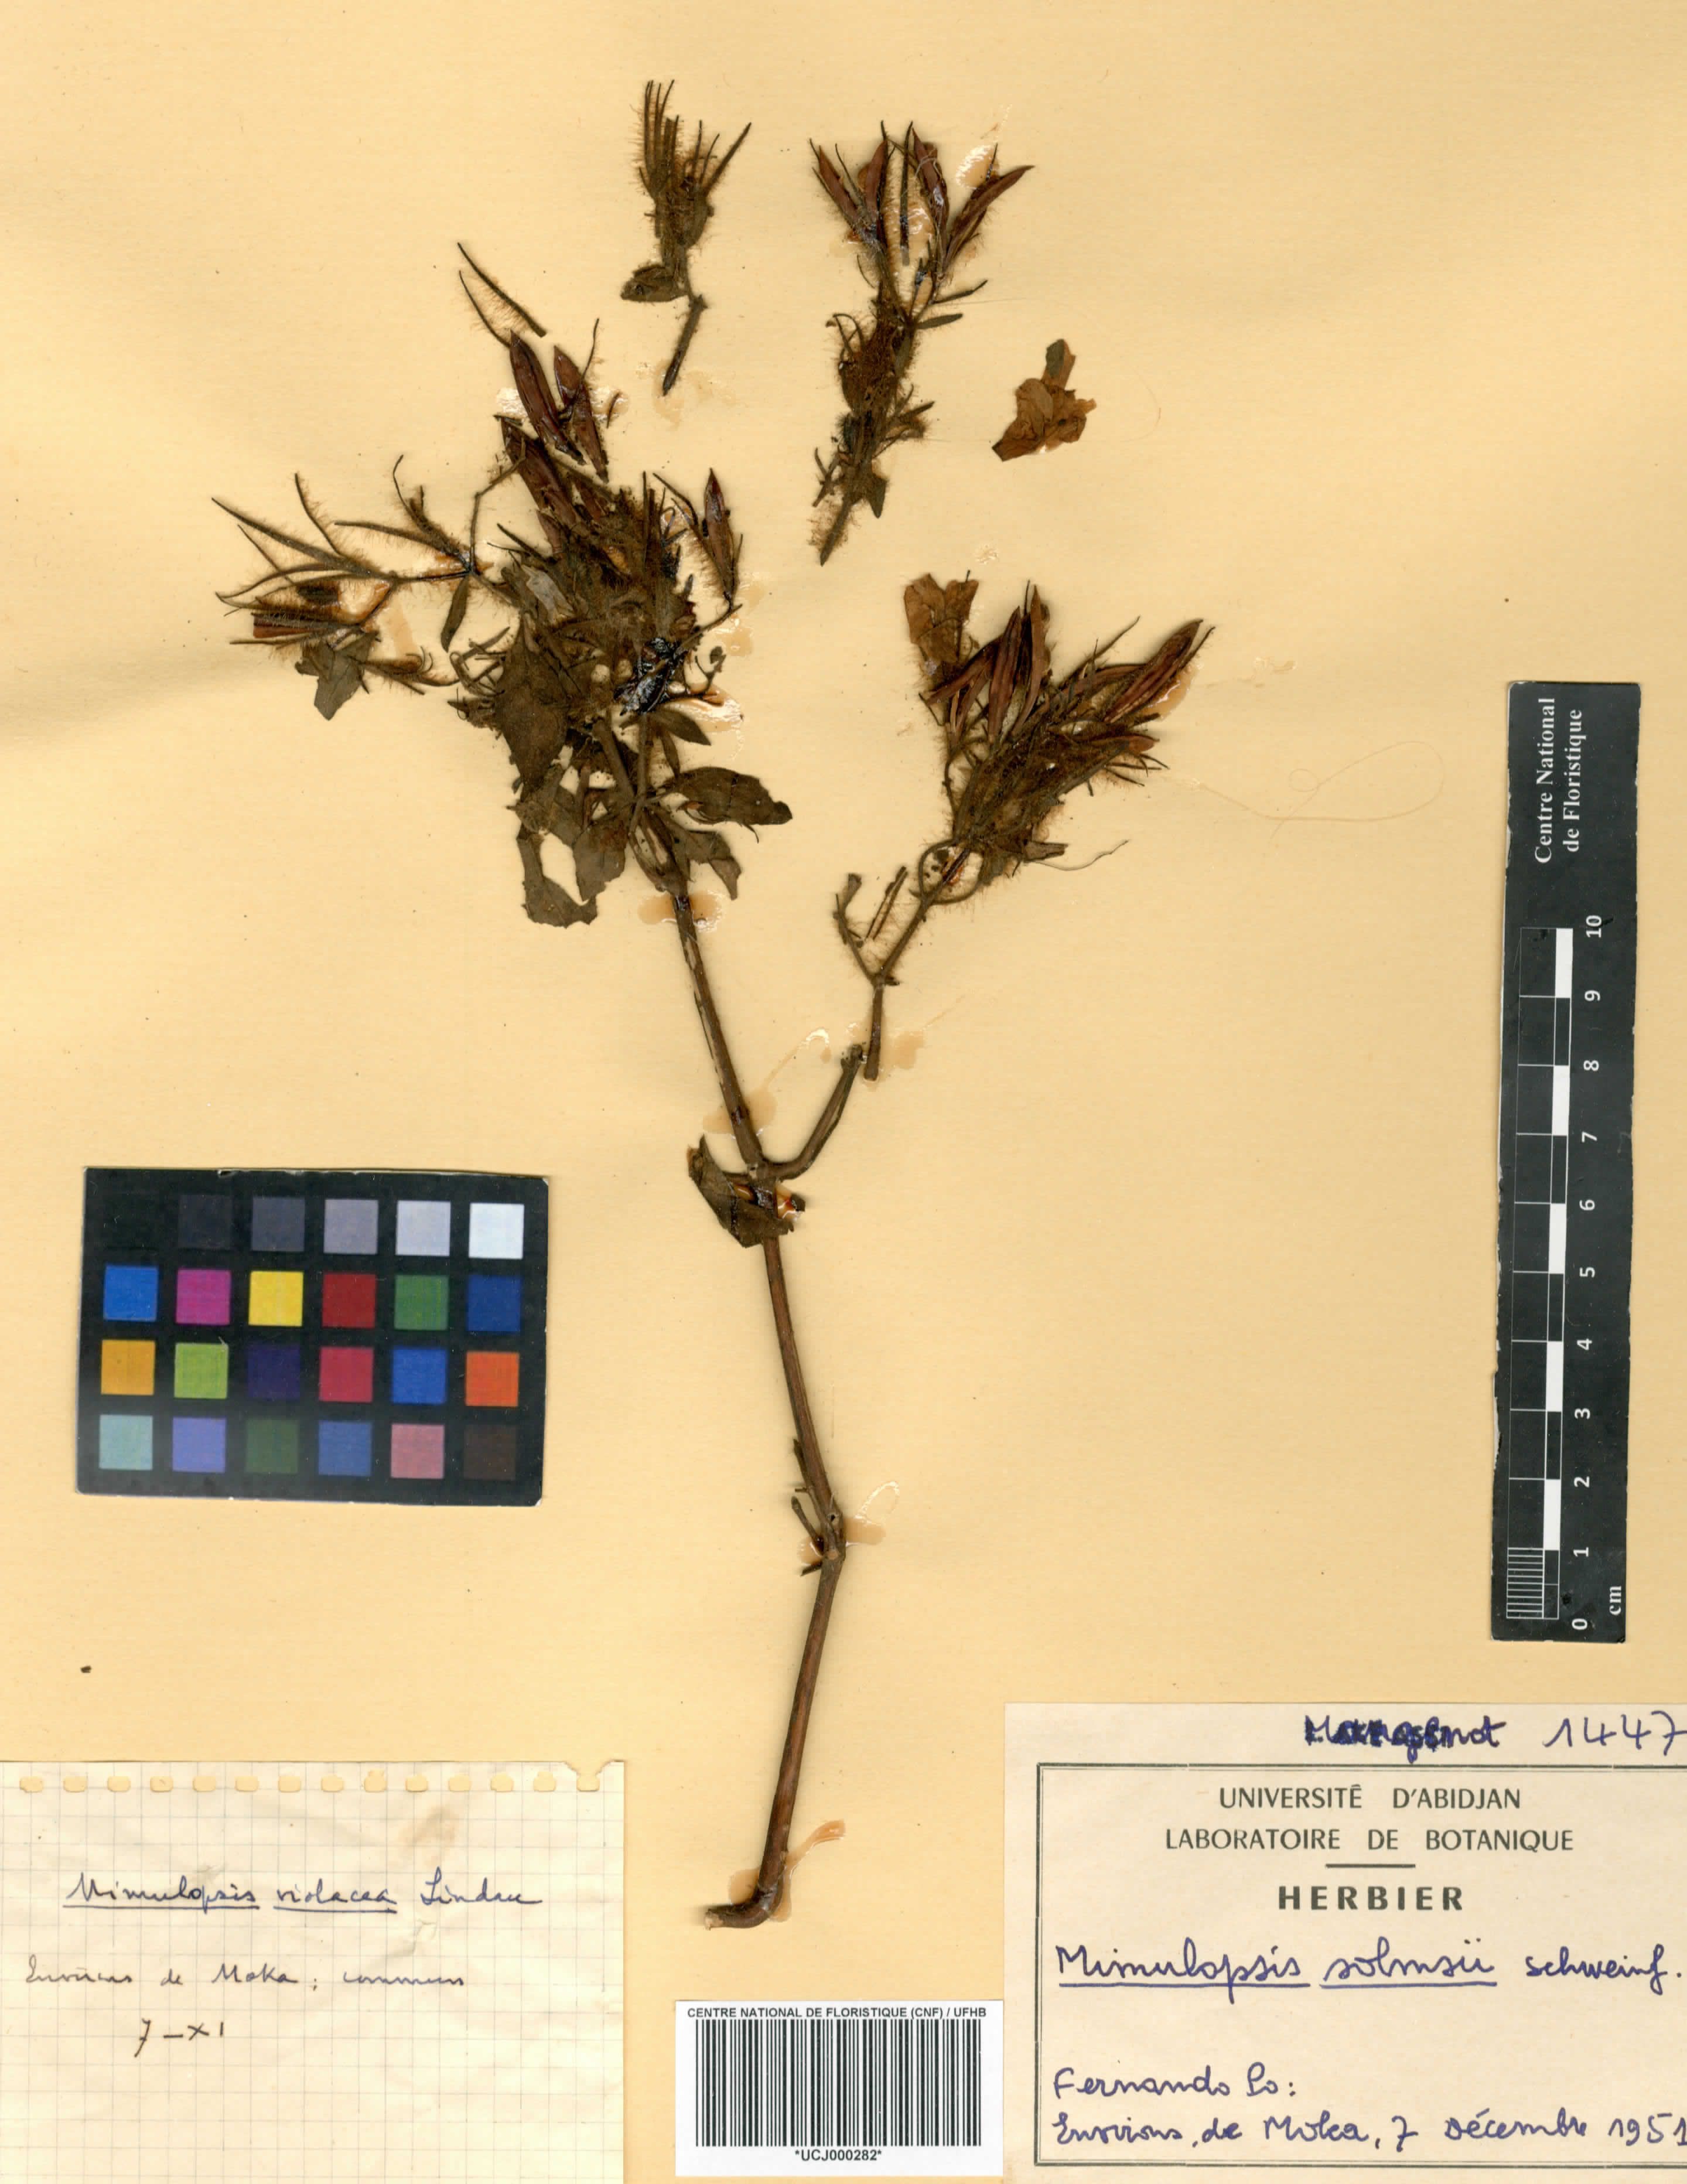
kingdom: Plantae
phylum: Tracheophyta
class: Magnoliopsida
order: Lamiales
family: Acanthaceae
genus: Mimulopsis
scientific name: Mimulopsis solmsii
